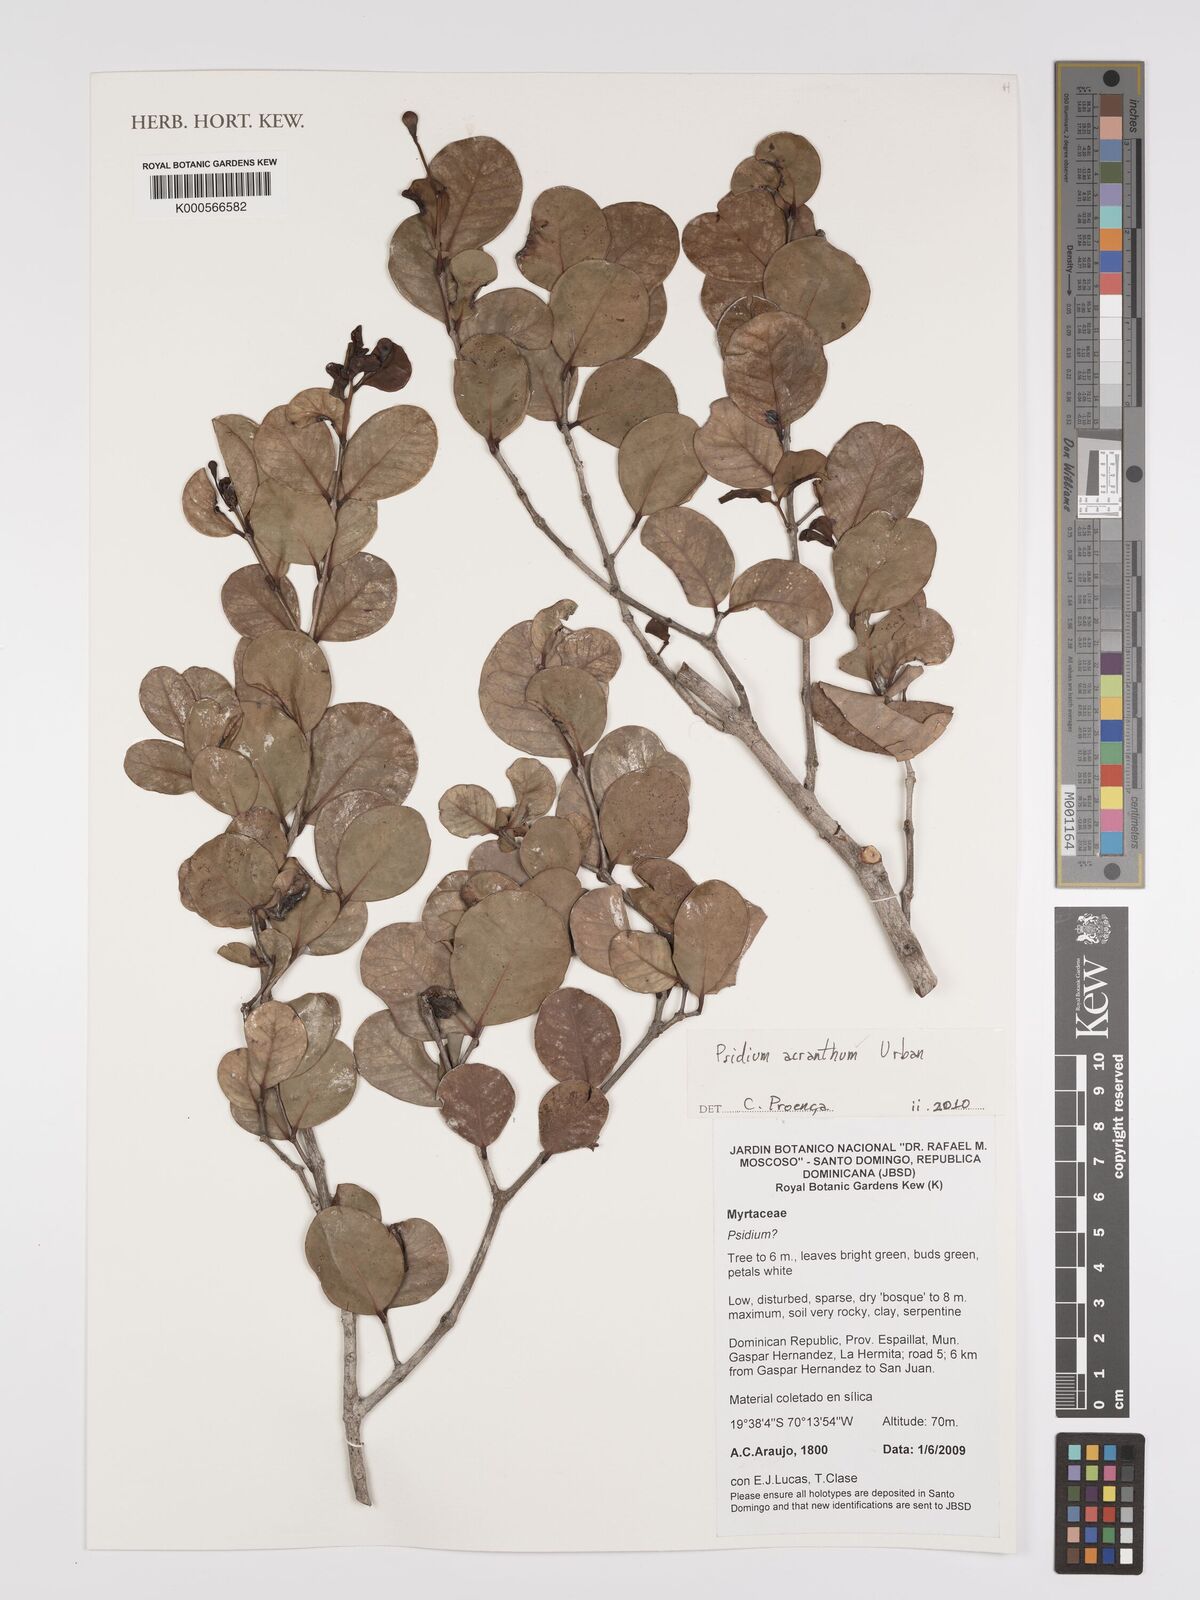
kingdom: Plantae
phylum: Tracheophyta
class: Magnoliopsida
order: Myrtales
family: Myrtaceae
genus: Psidium
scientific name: Psidium acranthum
